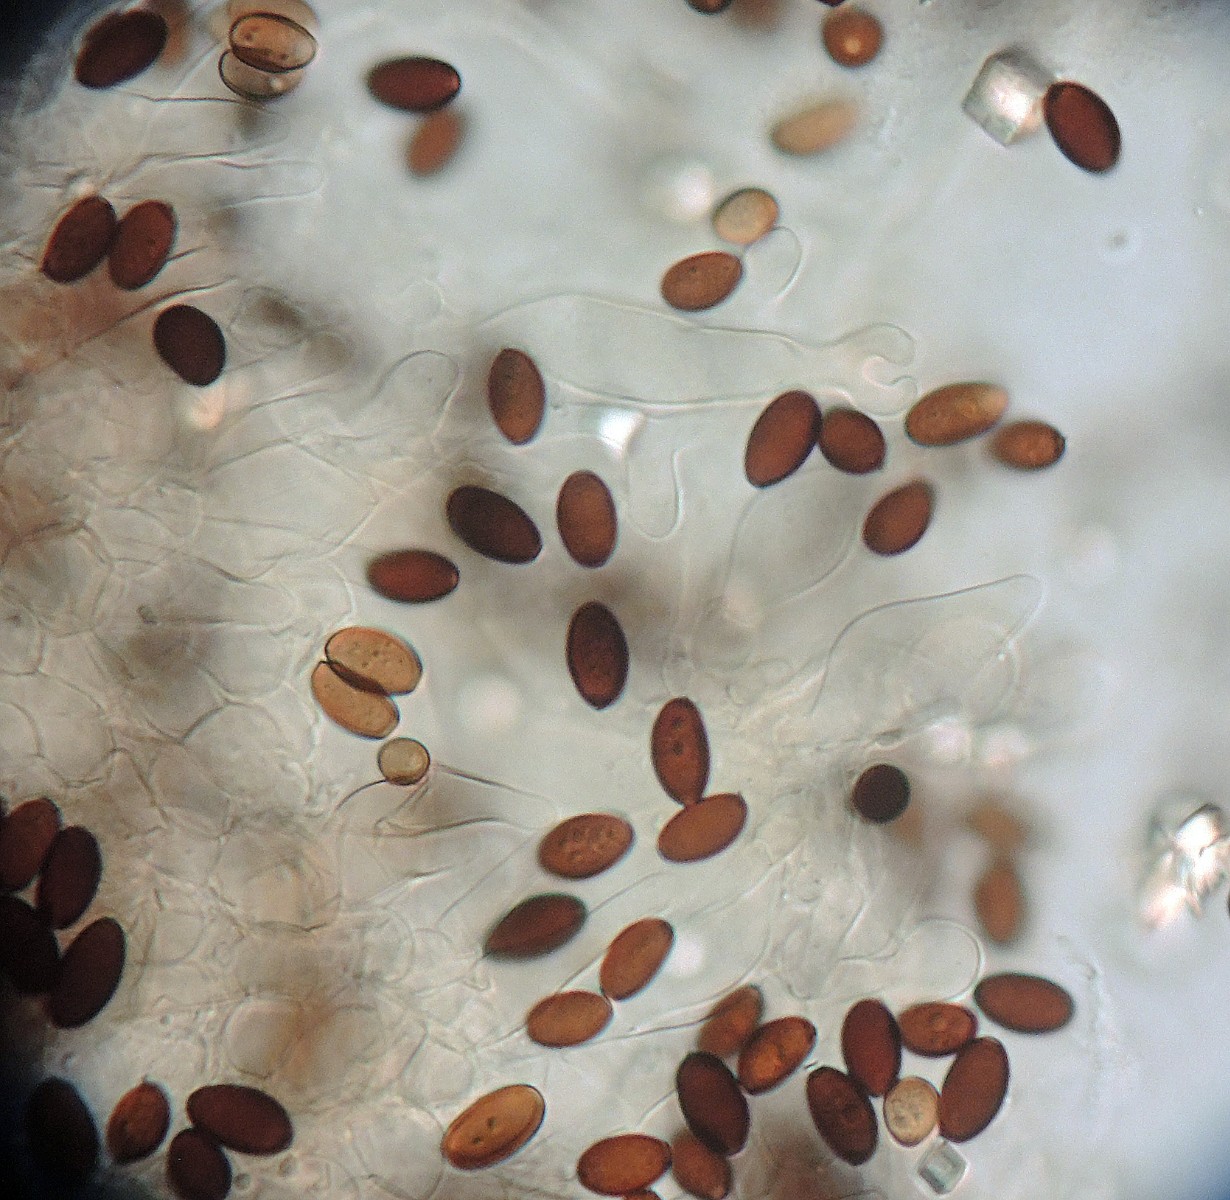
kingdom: Fungi
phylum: Basidiomycota
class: Agaricomycetes
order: Agaricales
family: Psathyrellaceae
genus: Psathyrella
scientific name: Psathyrella hirta
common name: møg-mørkhat
